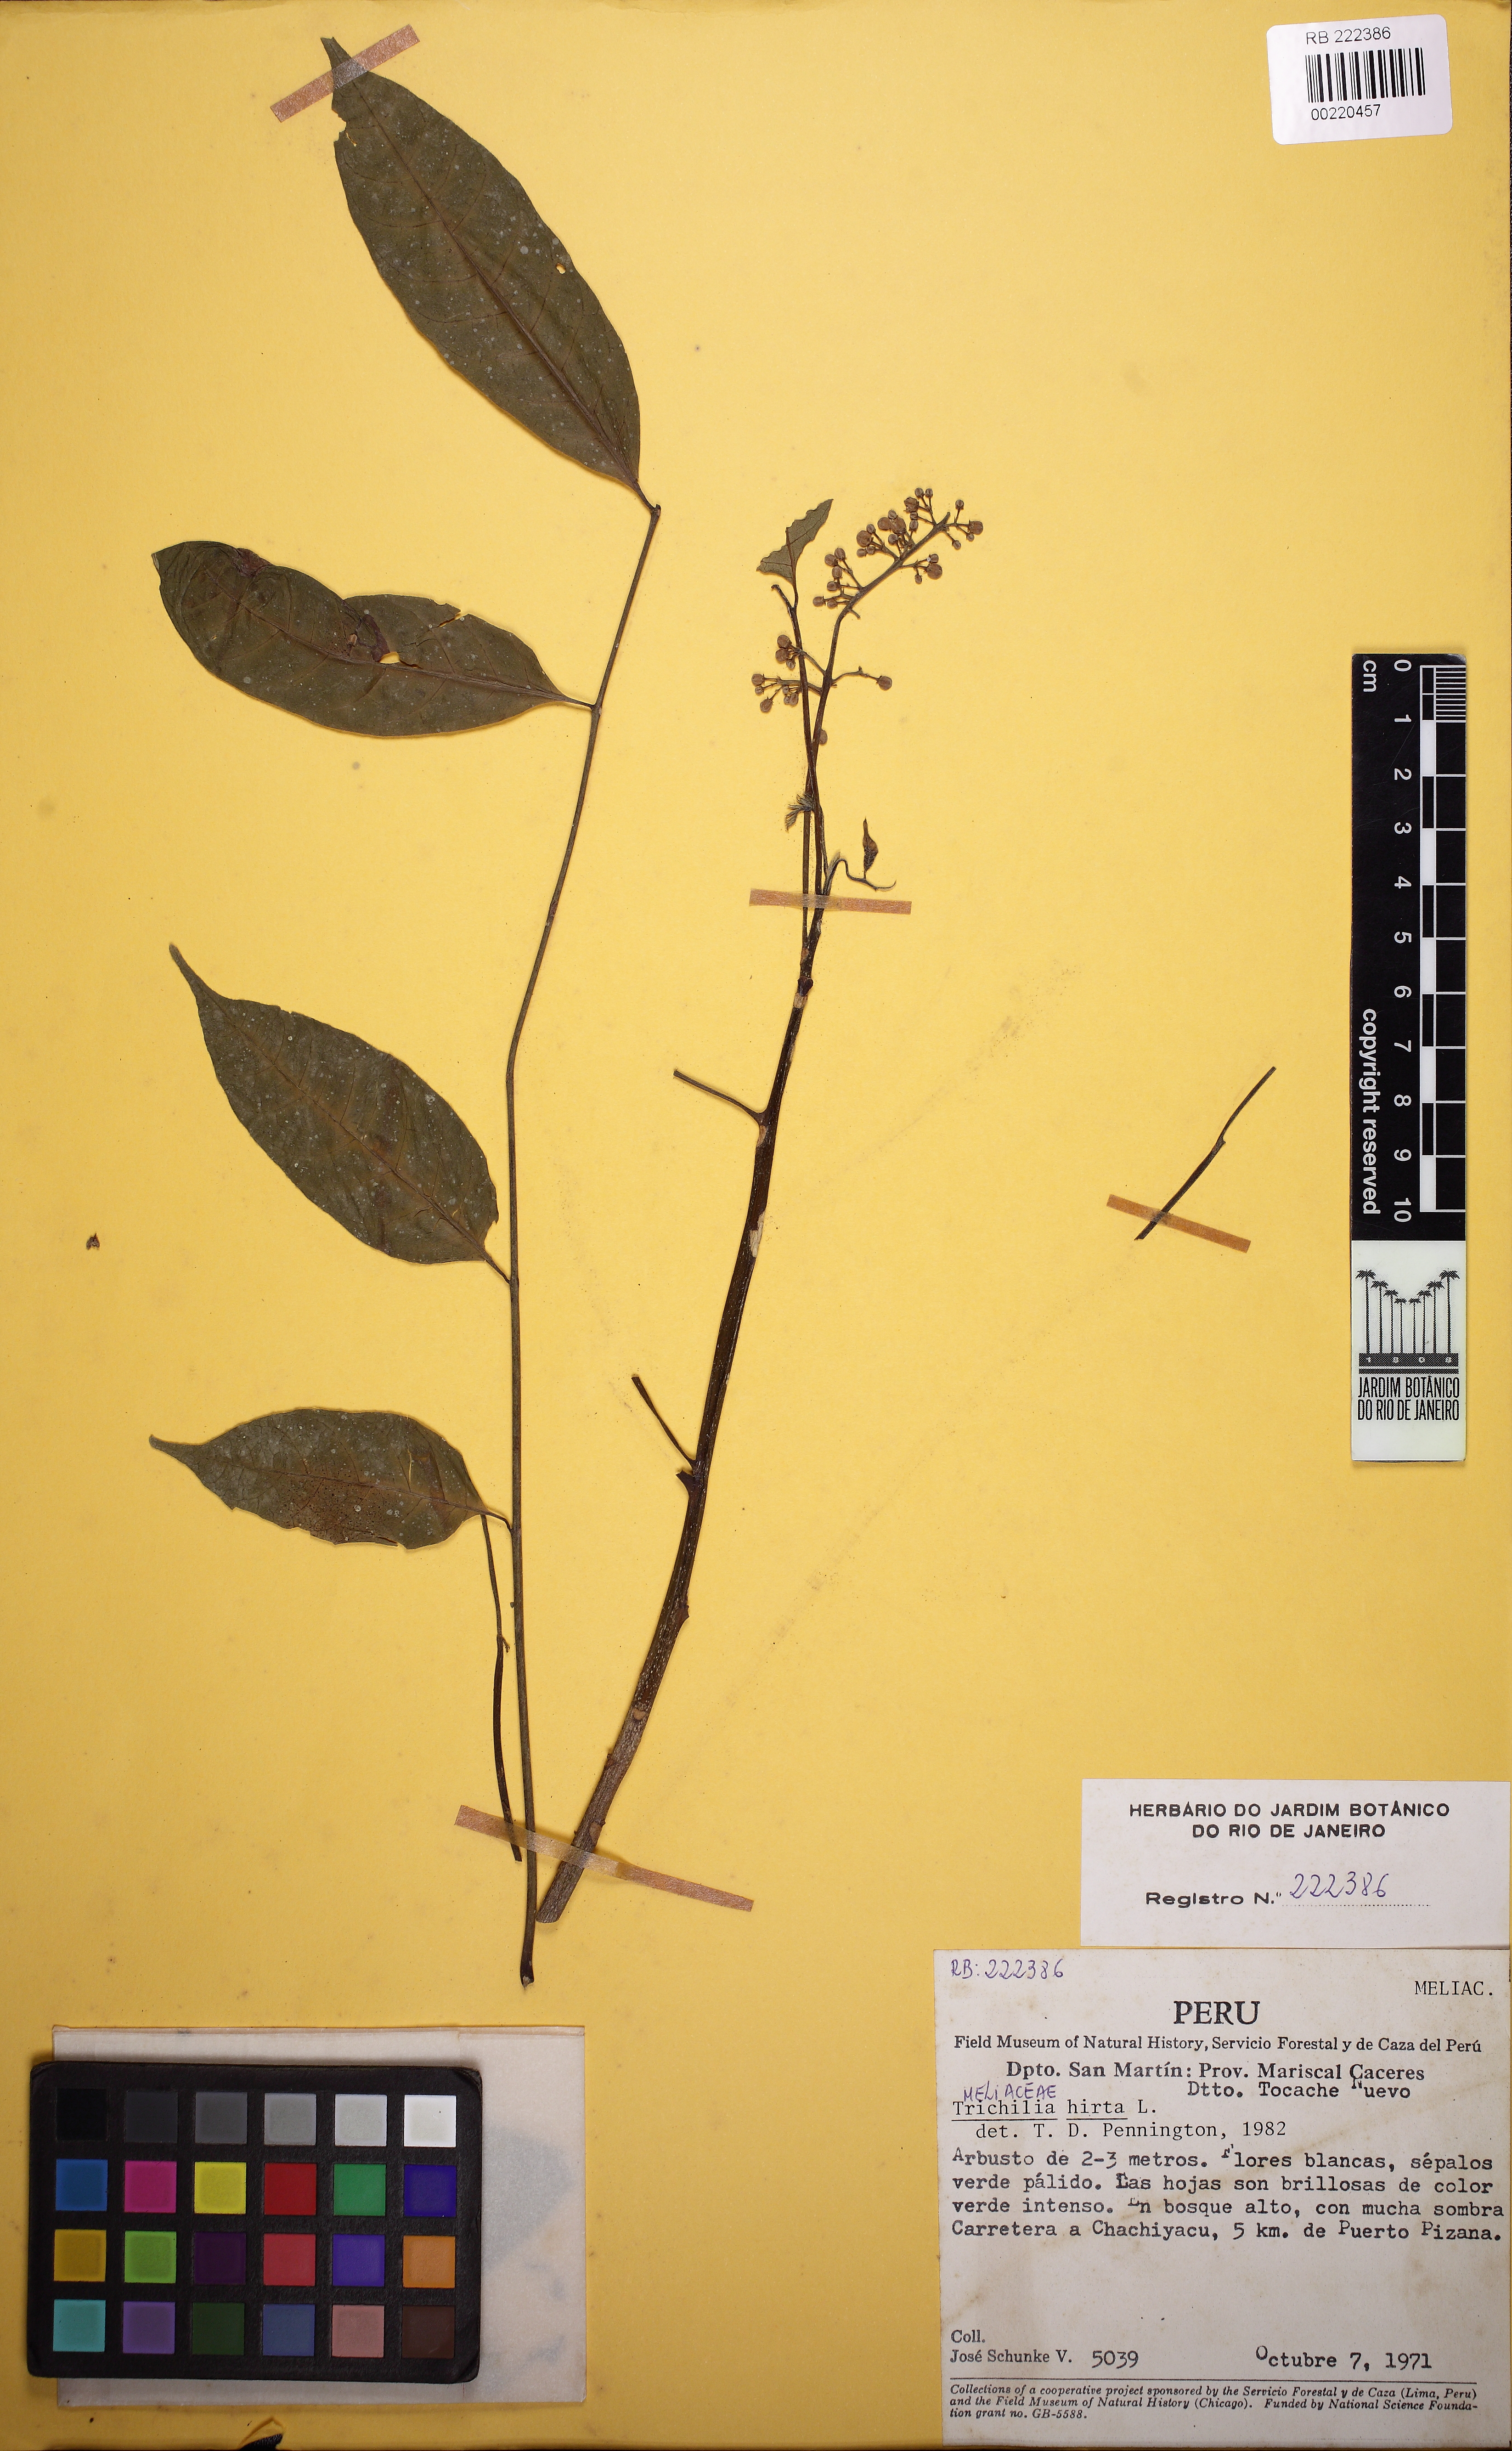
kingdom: Plantae
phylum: Tracheophyta
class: Magnoliopsida
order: Sapindales
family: Meliaceae
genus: Trichilia
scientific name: Trichilia hirta
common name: Red-cedar
